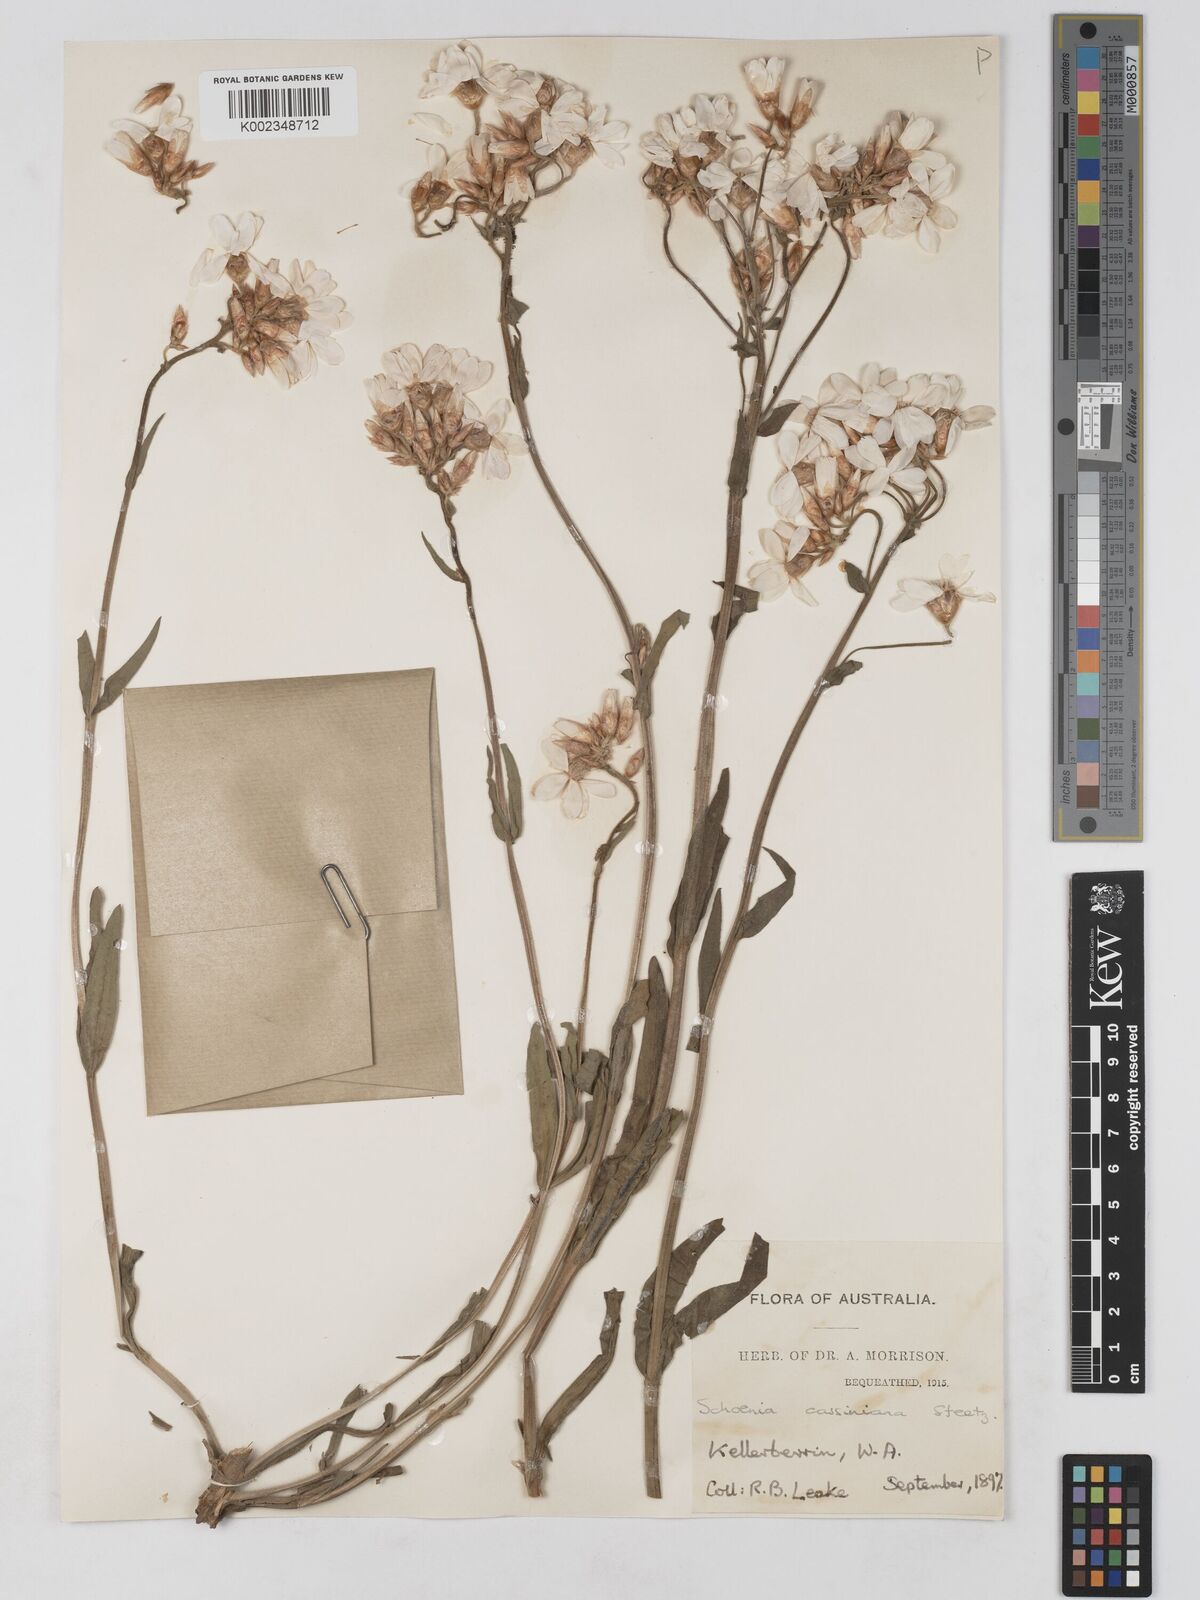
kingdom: Plantae
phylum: Tracheophyta
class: Magnoliopsida
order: Asterales
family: Asteraceae
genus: Schoenia
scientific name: Schoenia cassiniana
